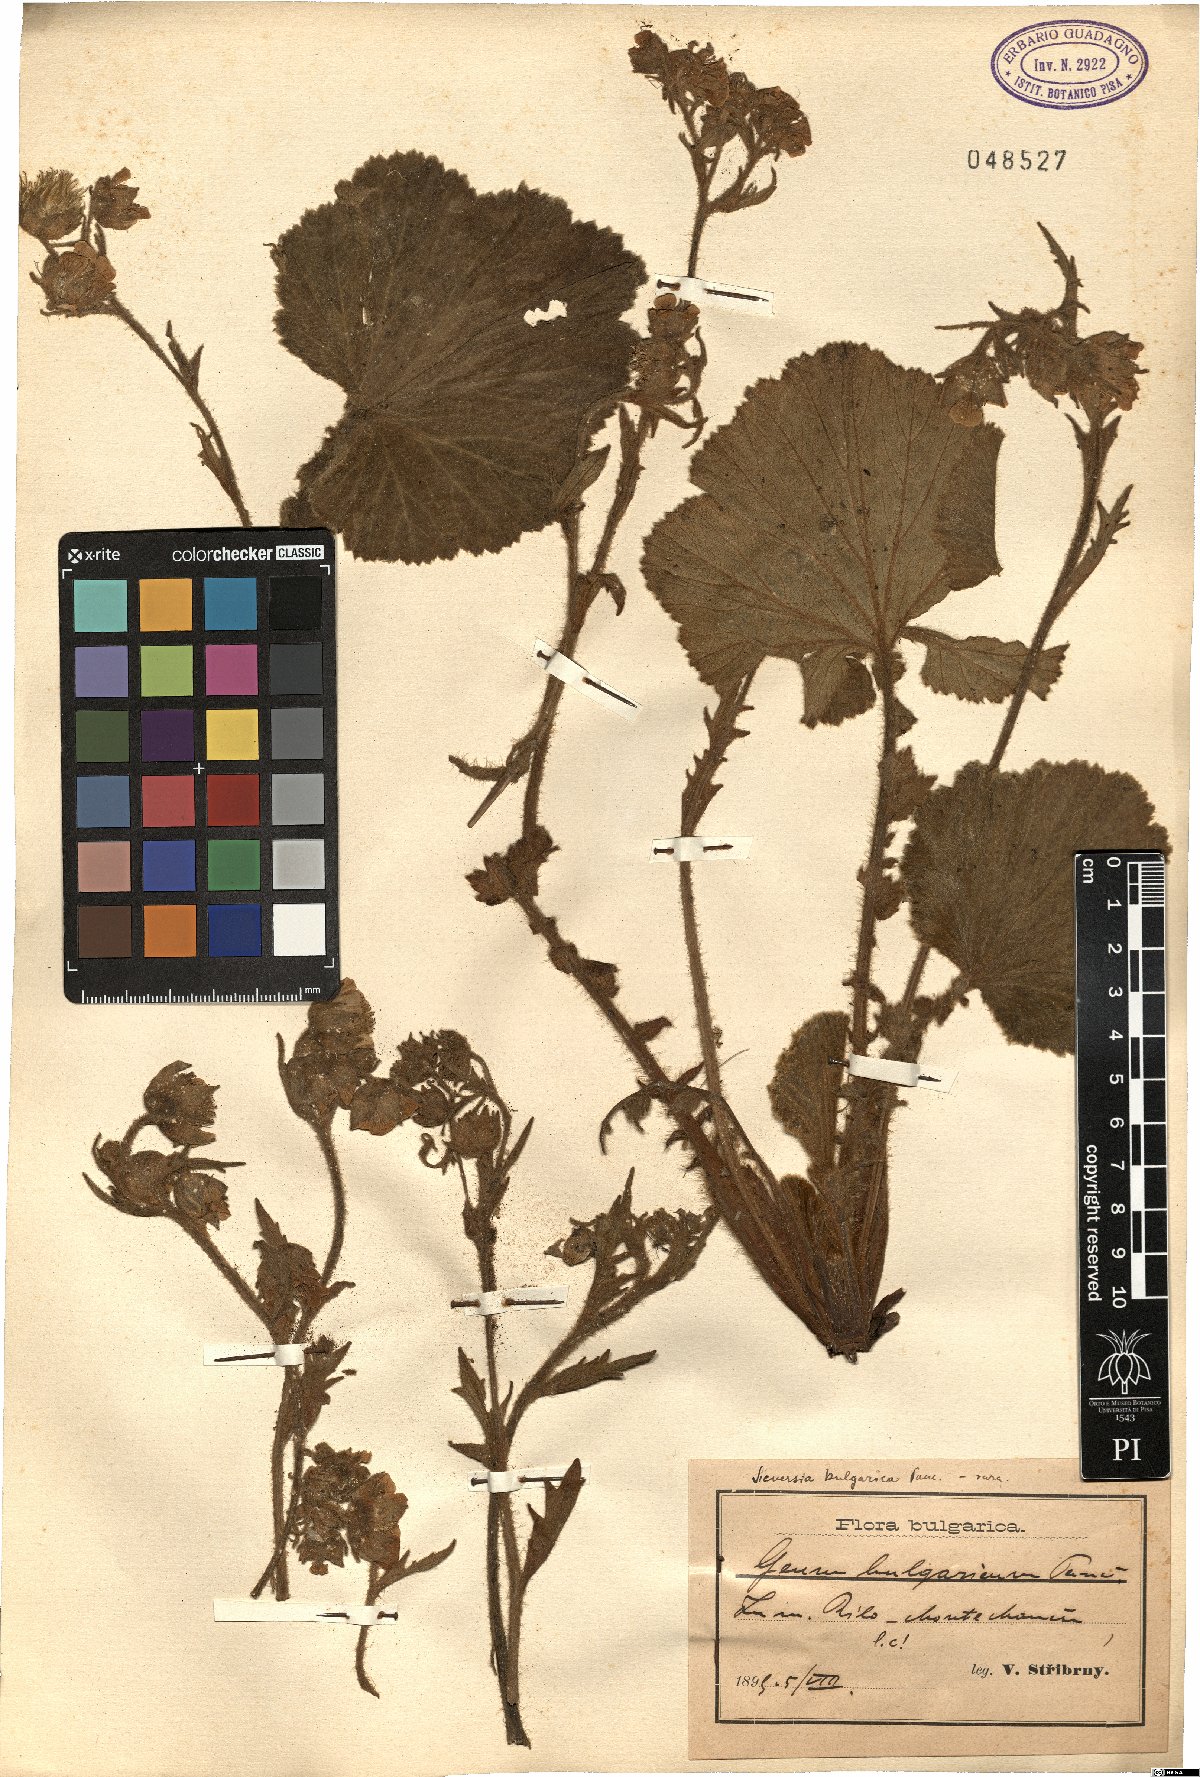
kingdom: Plantae
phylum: Tracheophyta
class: Magnoliopsida
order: Rosales
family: Rosaceae
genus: Geum
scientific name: Geum bulgaricum
